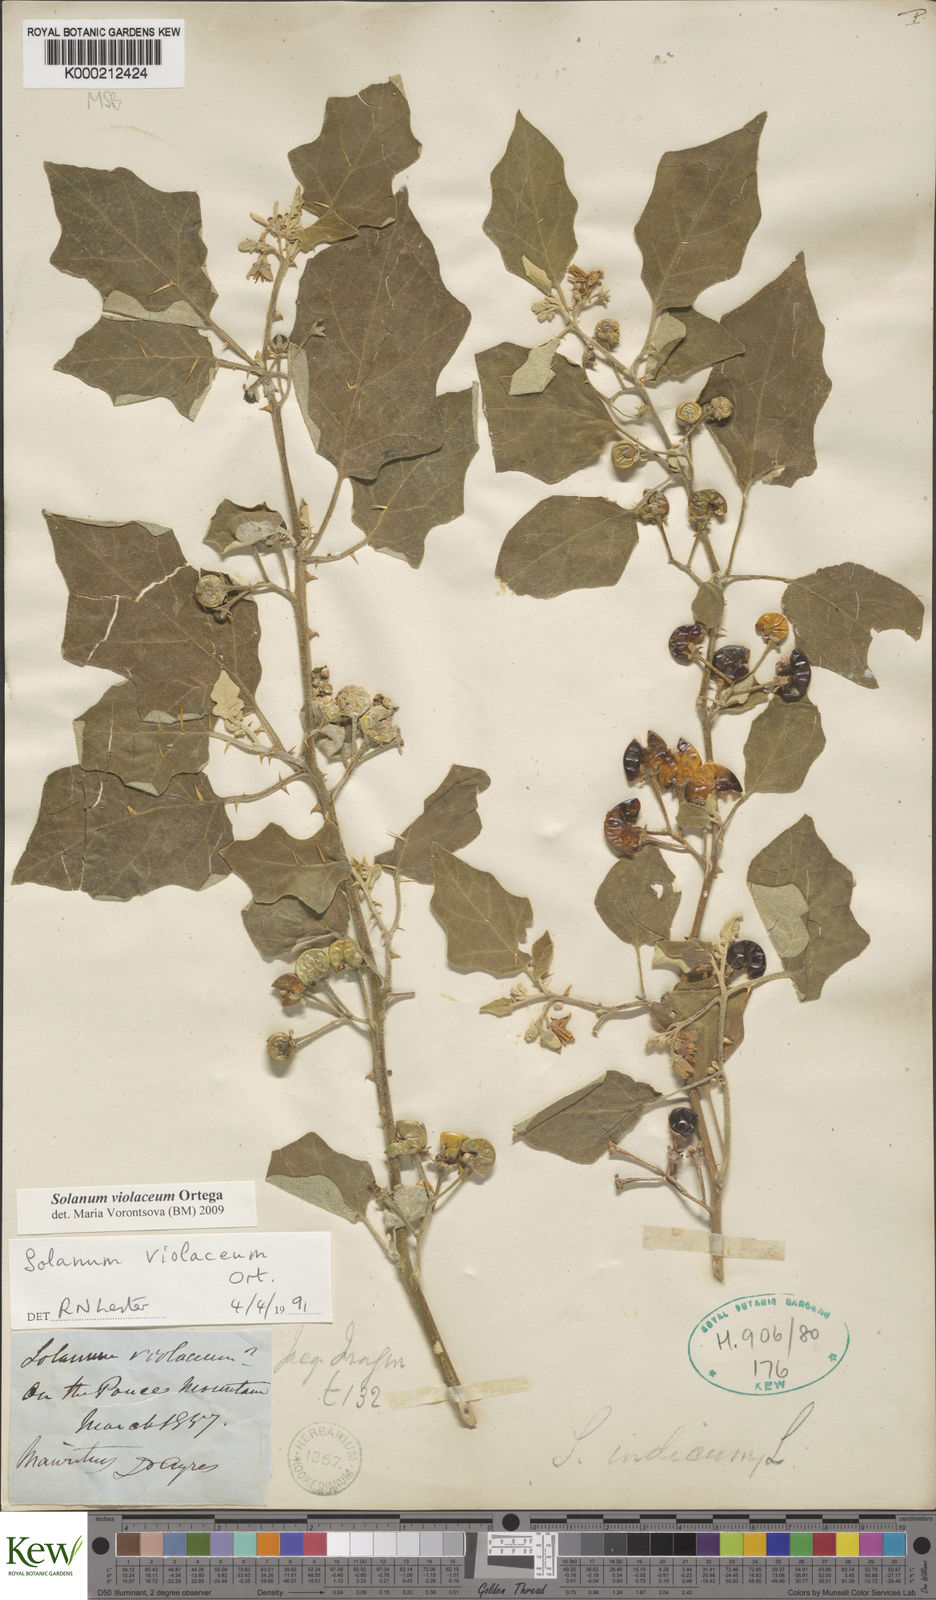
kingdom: Plantae
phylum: Tracheophyta
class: Magnoliopsida
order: Solanales
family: Solanaceae
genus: Solanum
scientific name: Solanum violaceum
